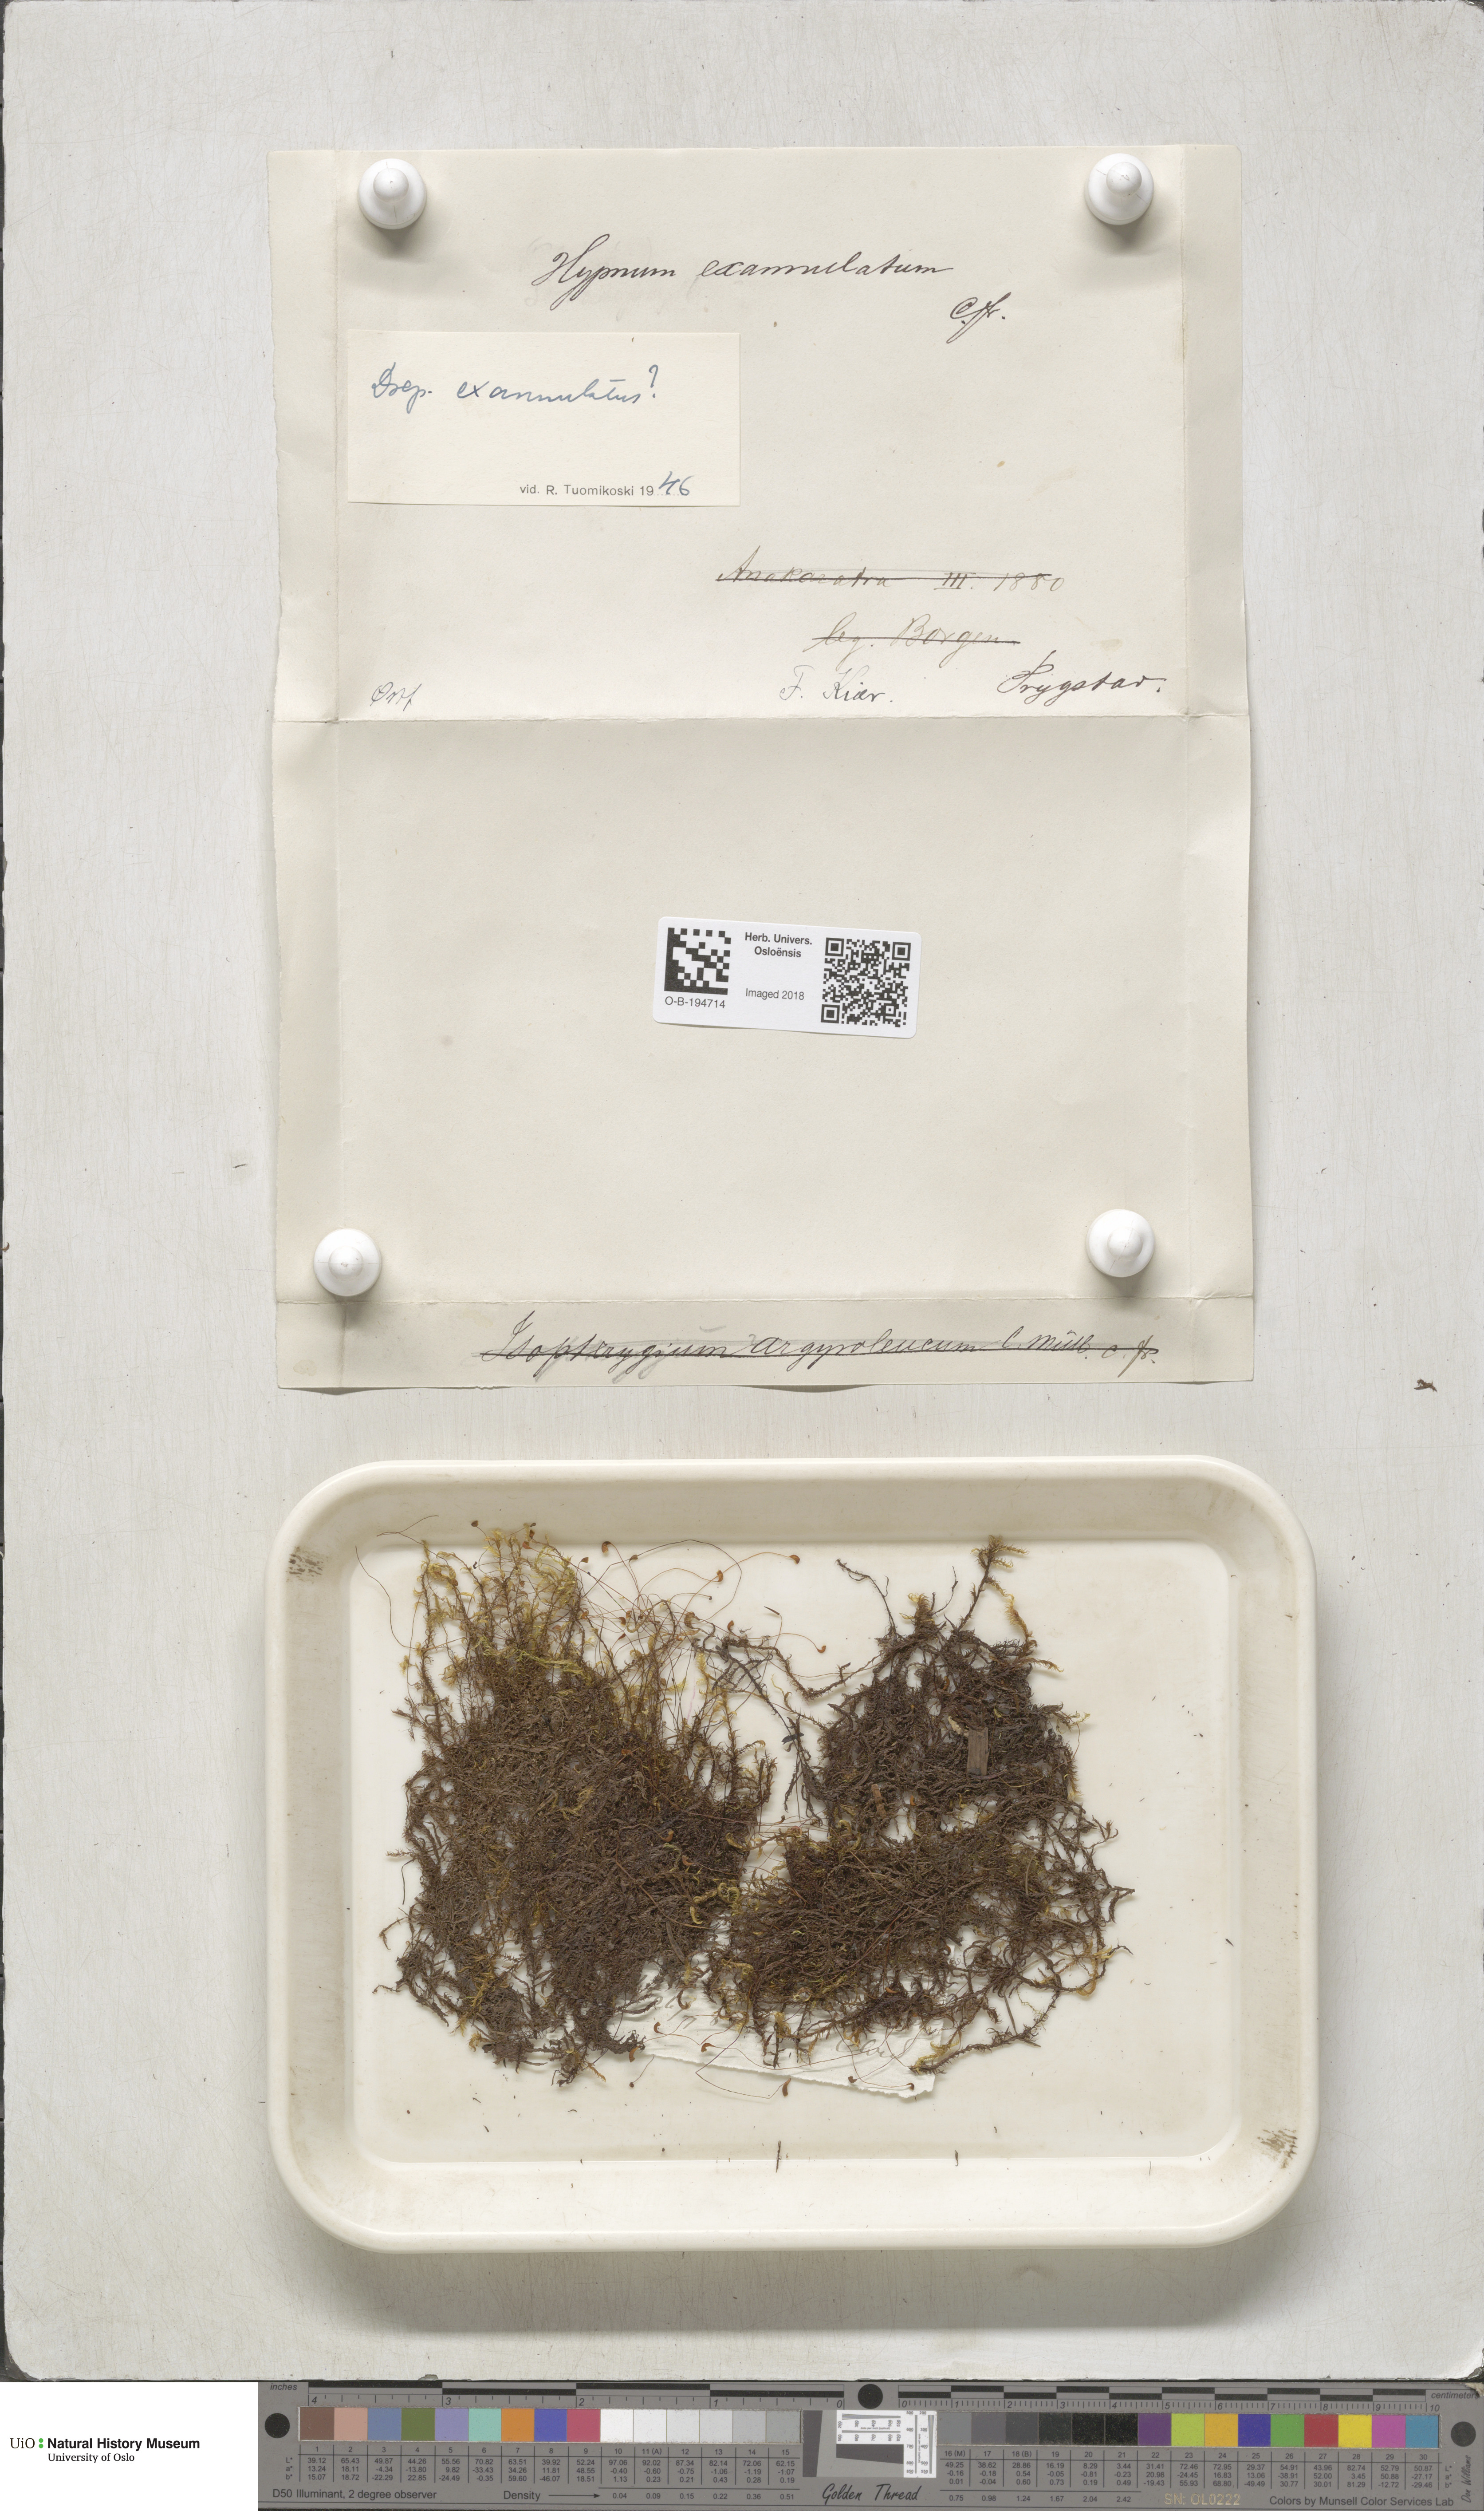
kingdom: Plantae
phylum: Bryophyta
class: Bryopsida
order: Hypnales
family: Calliergonaceae
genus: Sarmentypnum
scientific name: Sarmentypnum exannulatum
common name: Ringless spoon moss
